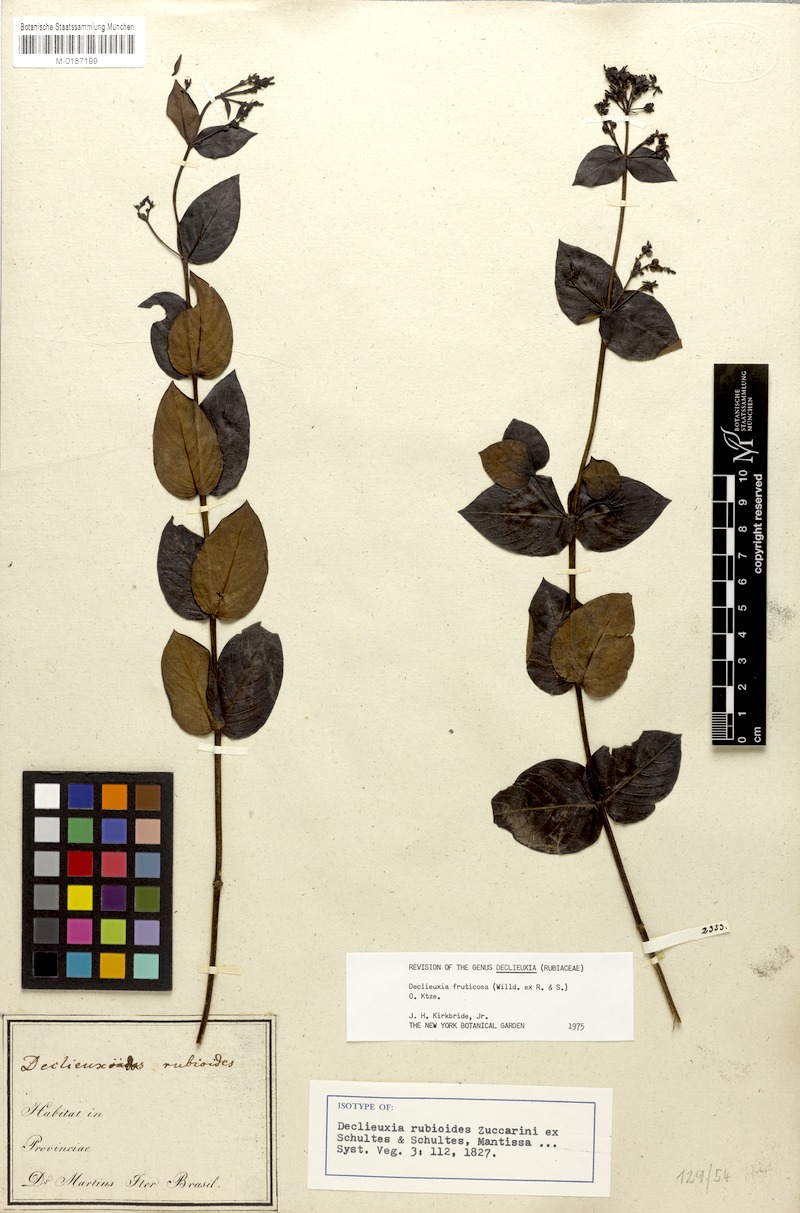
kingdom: Plantae
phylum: Tracheophyta
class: Magnoliopsida
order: Gentianales
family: Rubiaceae
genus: Declieuxia
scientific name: Declieuxia fruticosa
